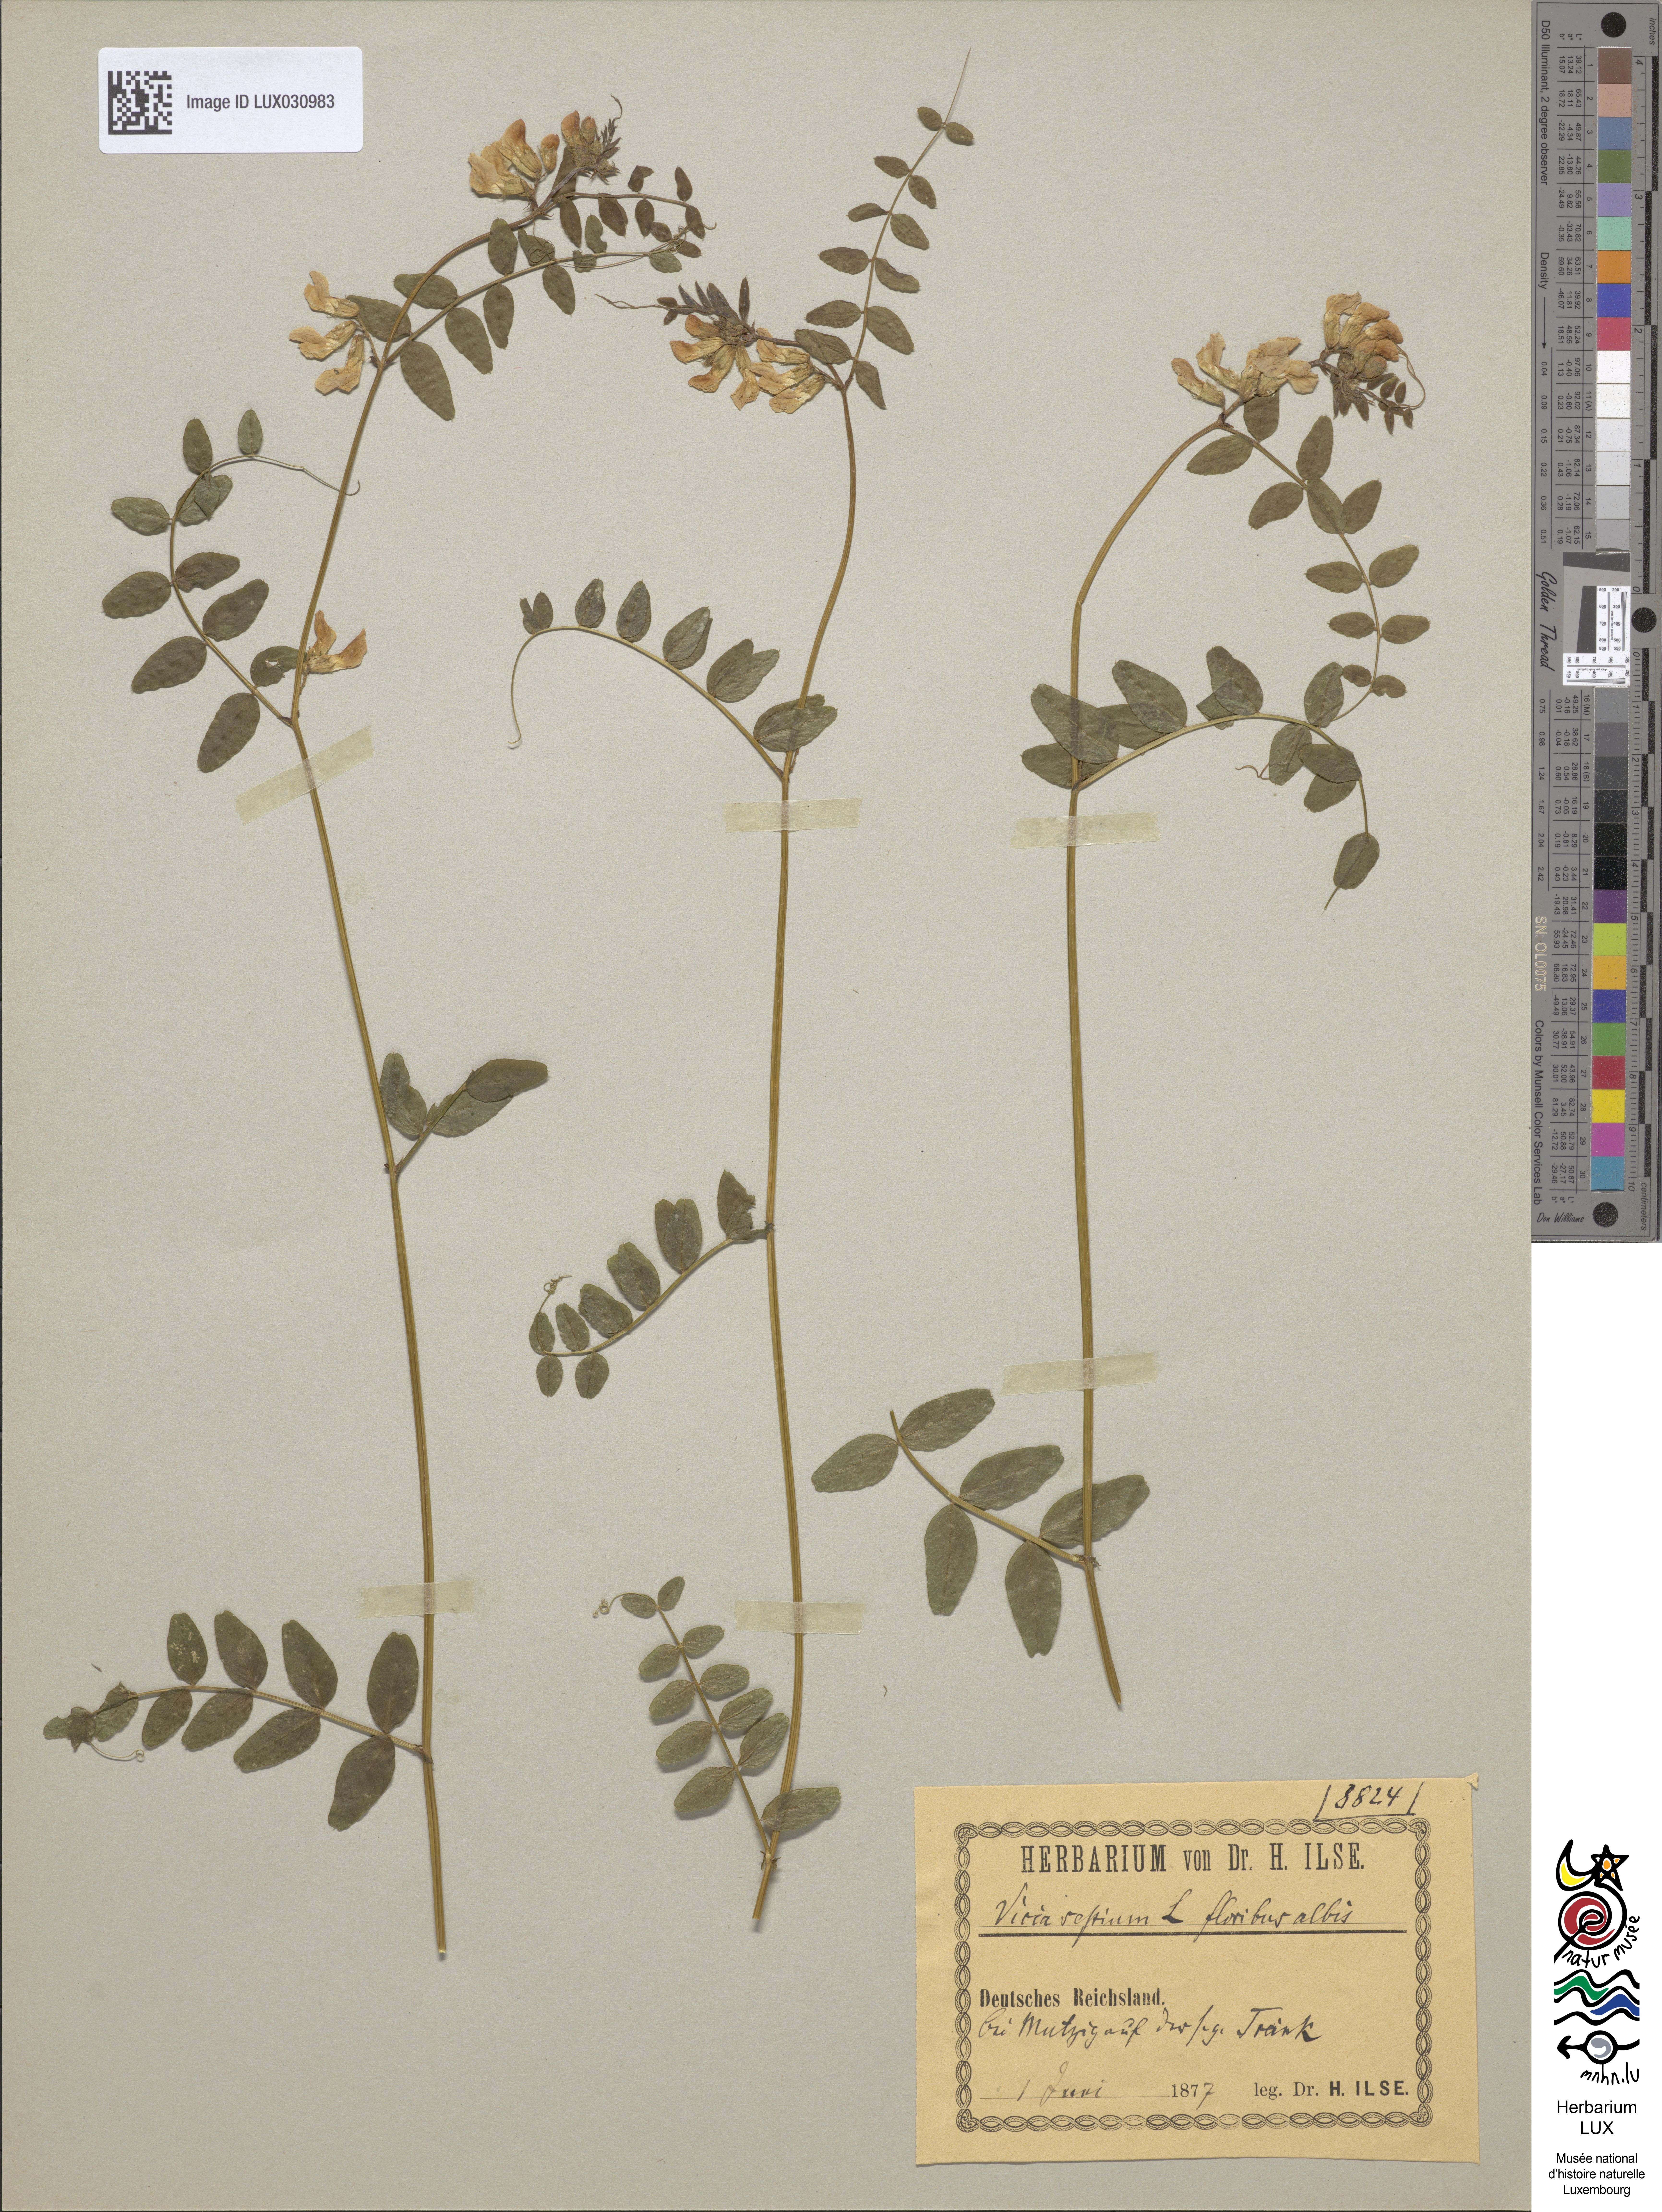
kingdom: Plantae
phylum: Tracheophyta
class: Magnoliopsida
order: Fabales
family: Fabaceae
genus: Vicia
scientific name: Vicia sepium
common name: Bush vetch
